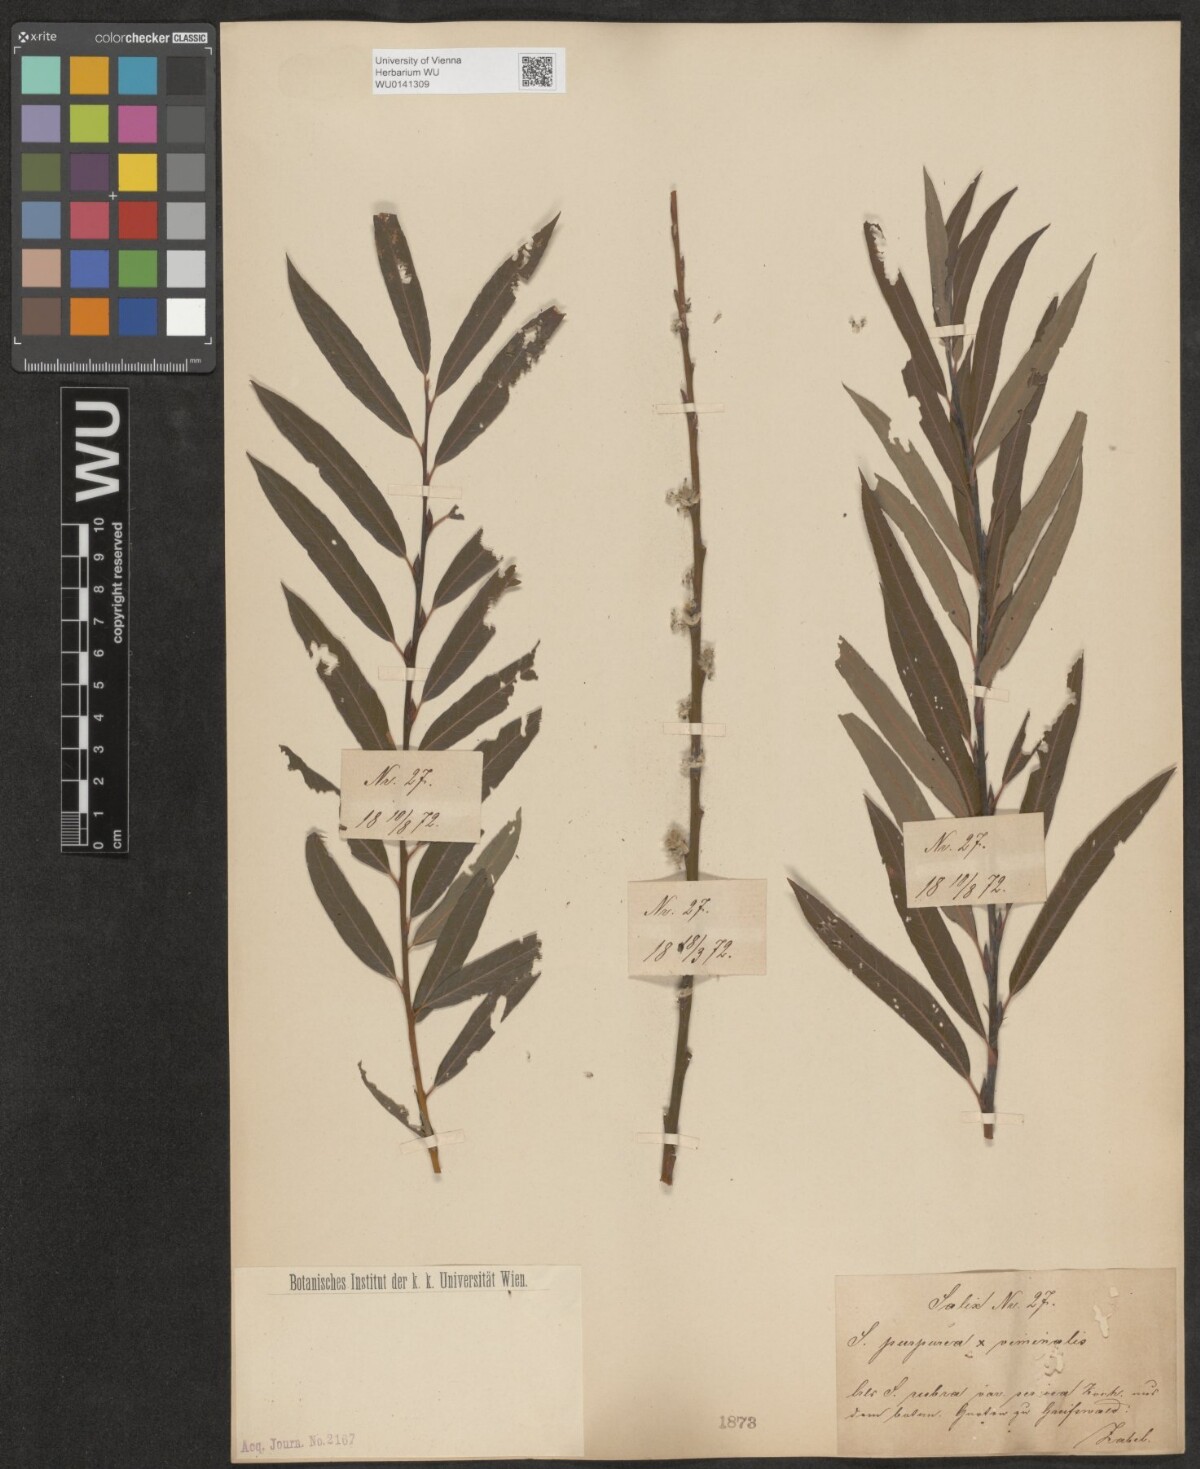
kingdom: Plantae
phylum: Tracheophyta
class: Magnoliopsida
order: Malpighiales
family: Salicaceae
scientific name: Salicaceae
